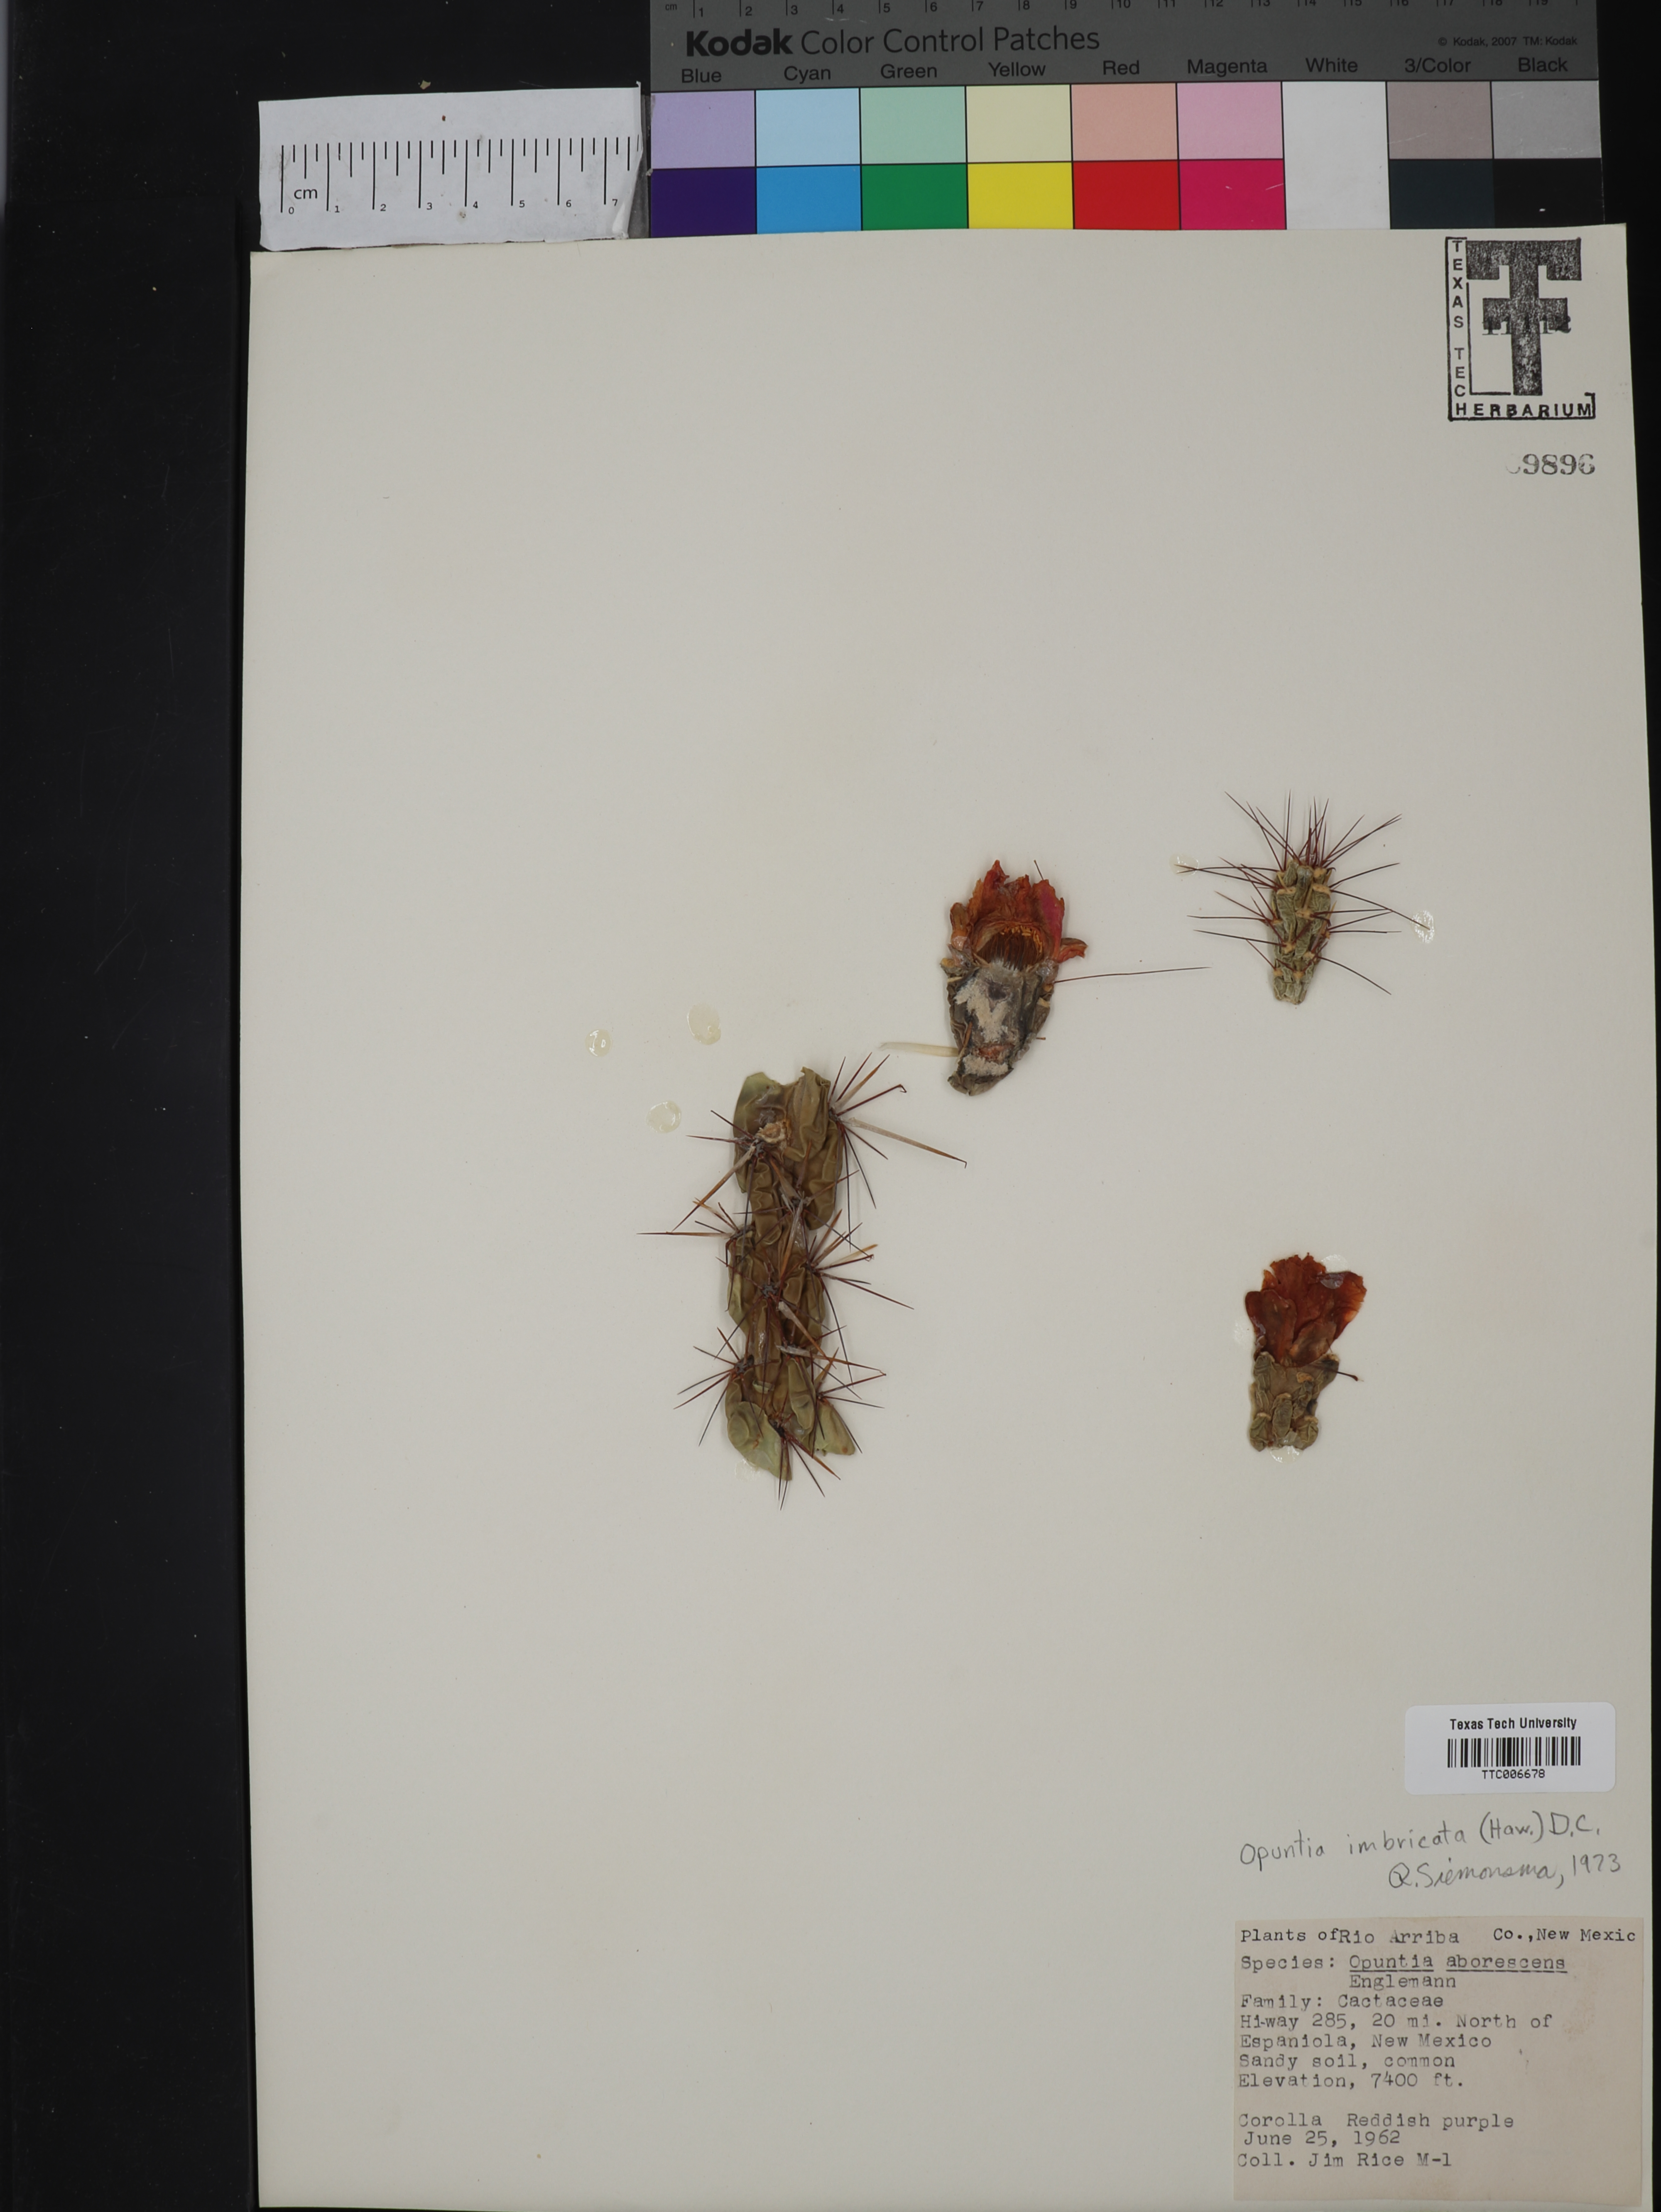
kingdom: Plantae
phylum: Tracheophyta
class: Magnoliopsida
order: Caryophyllales
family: Cactaceae
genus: Cylindropuntia
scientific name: Cylindropuntia imbricata
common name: Candelabrum cactus
